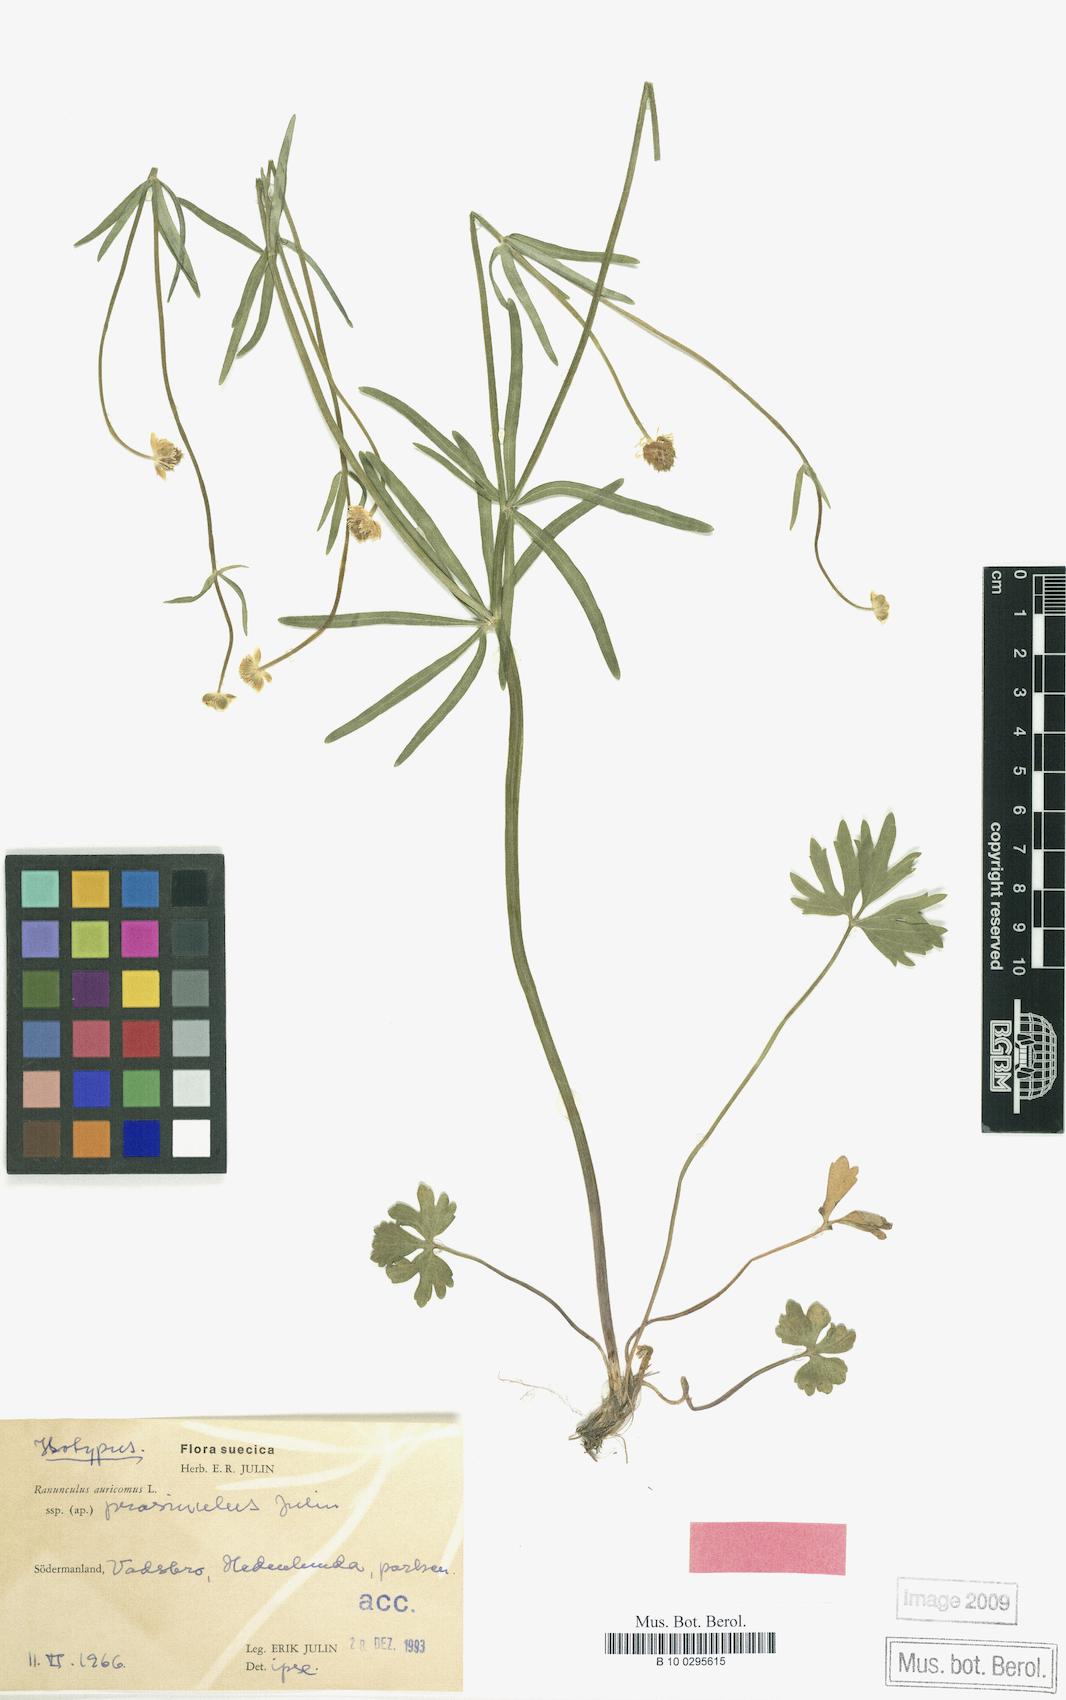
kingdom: Plantae
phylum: Tracheophyta
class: Magnoliopsida
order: Ranunculales
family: Ranunculaceae
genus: Ranunculus
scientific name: Ranunculus prasinulus
